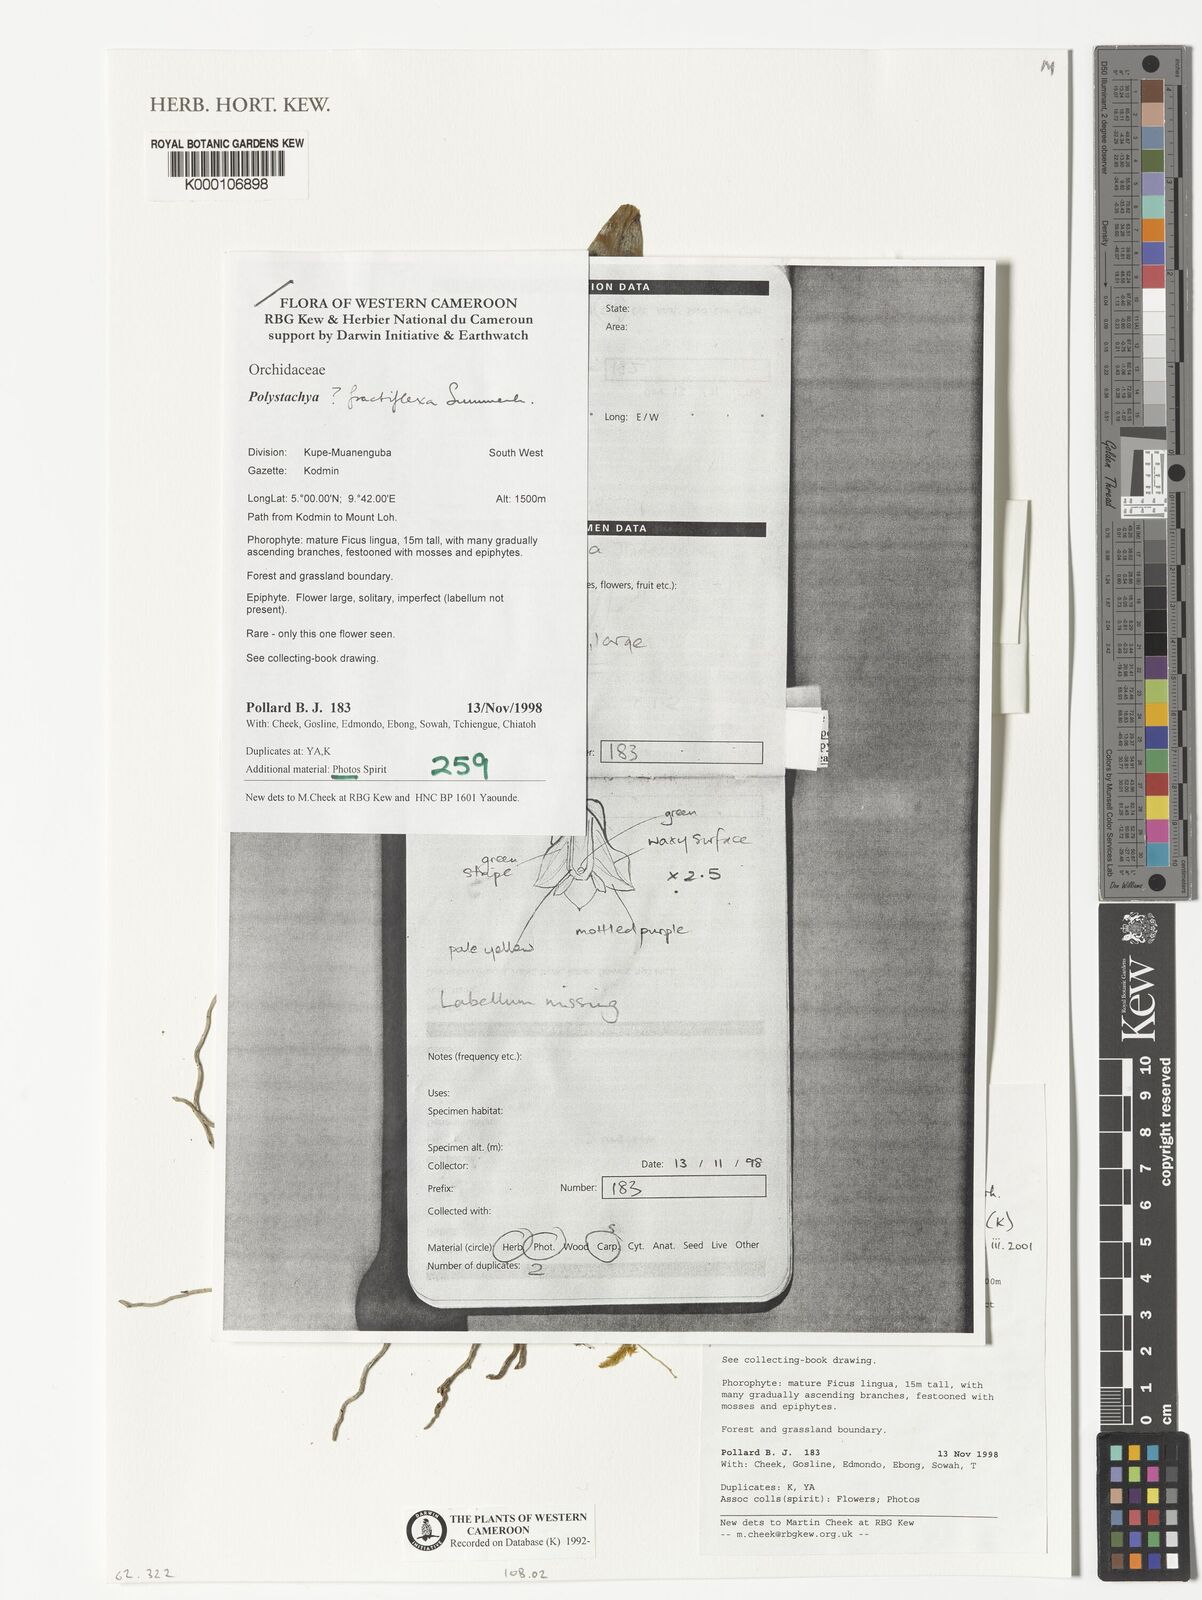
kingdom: Plantae
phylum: Tracheophyta
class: Liliopsida
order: Asparagales
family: Orchidaceae
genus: Polystachya
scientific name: Polystachya fractiflexa
